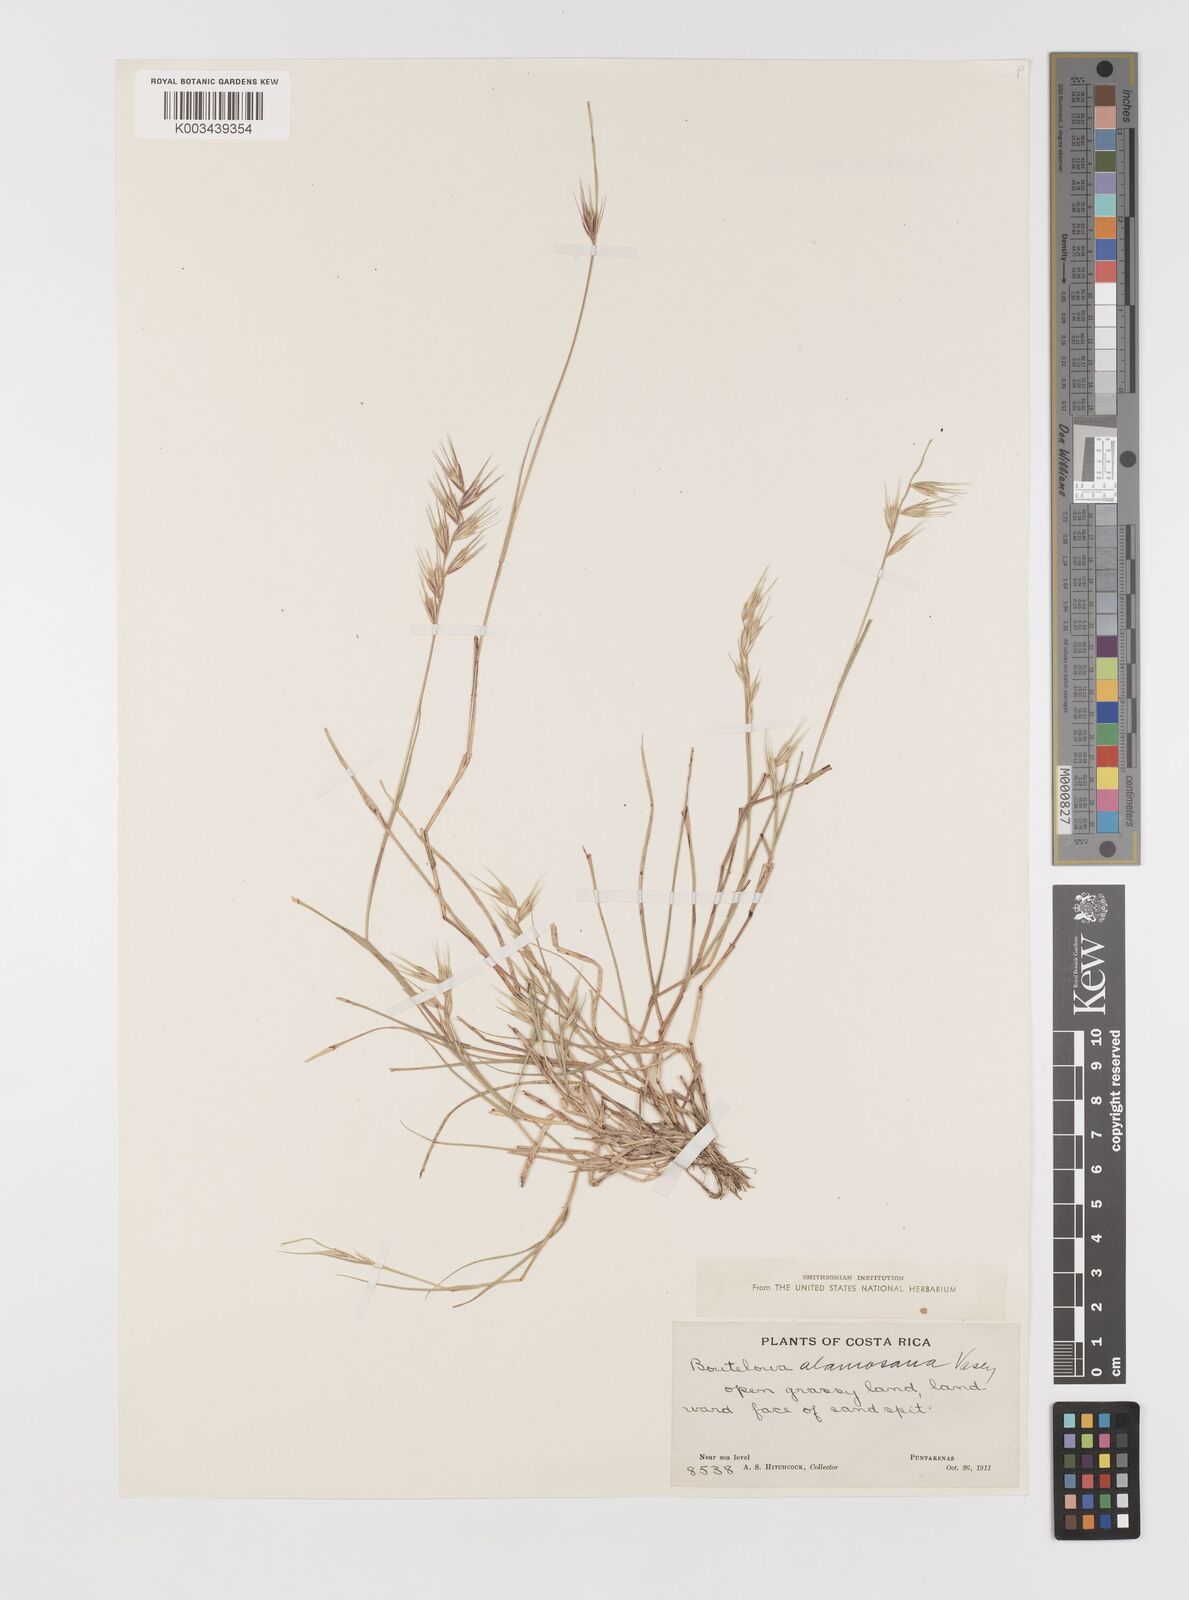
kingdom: Plantae
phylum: Tracheophyta
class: Liliopsida
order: Poales
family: Poaceae
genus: Bouteloua
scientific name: Bouteloua alamosana
